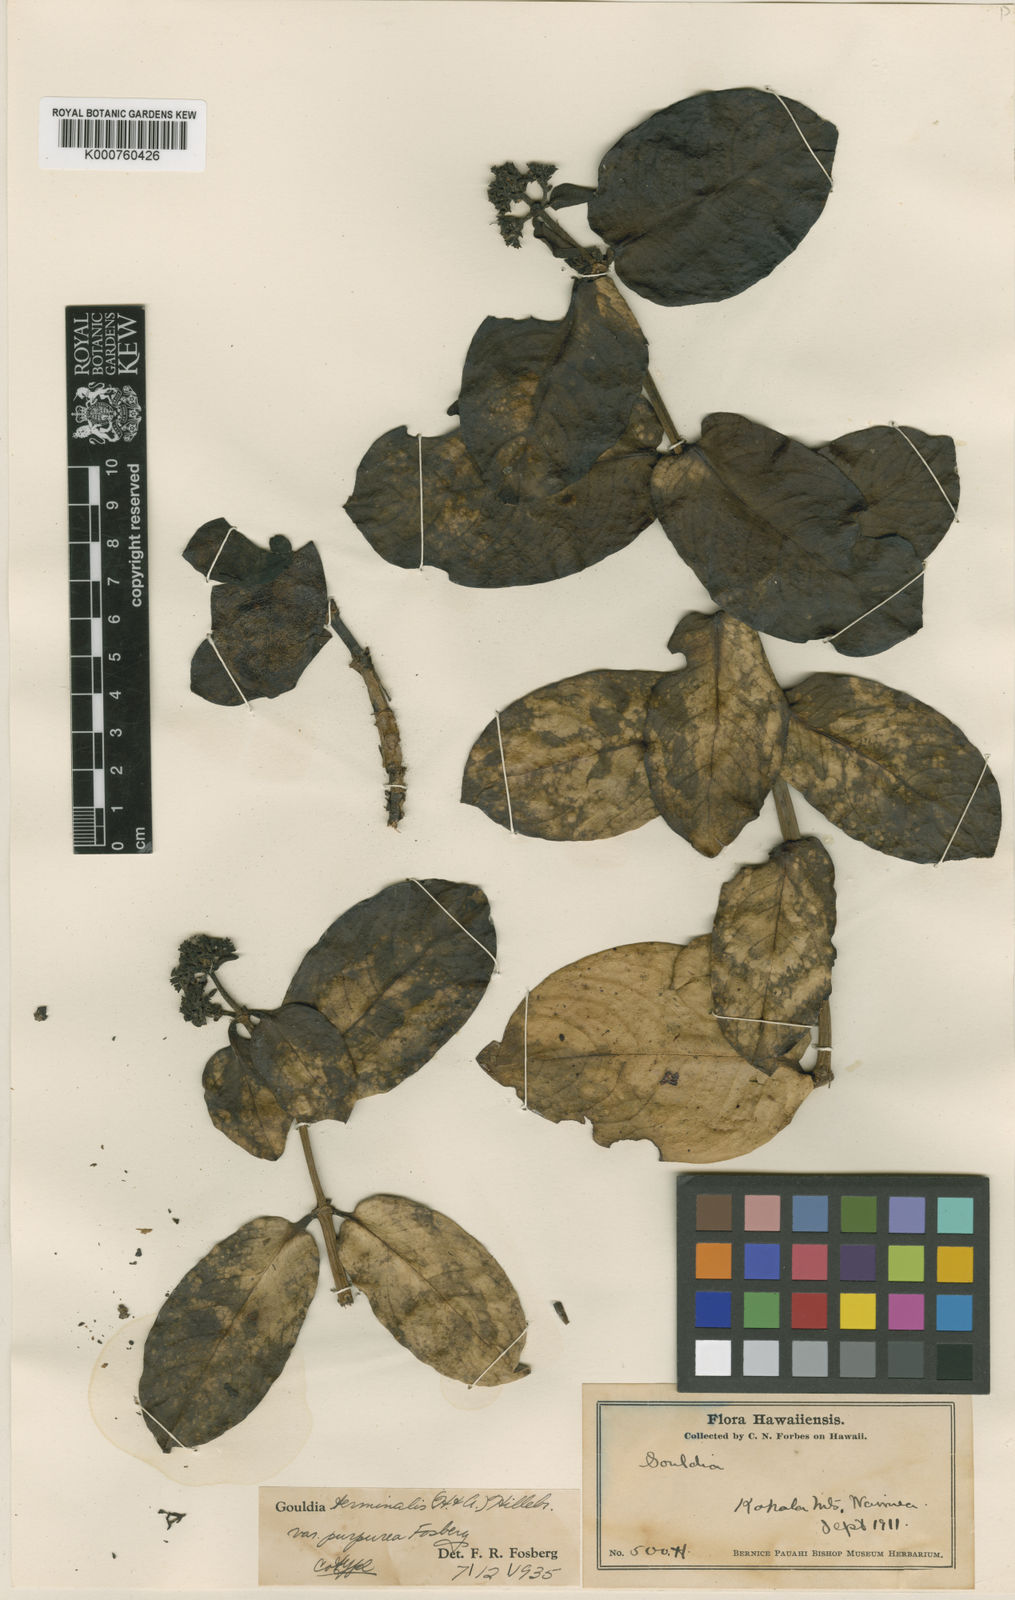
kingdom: Plantae
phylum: Tracheophyta
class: Magnoliopsida
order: Gentianales
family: Rubiaceae
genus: Kadua
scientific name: Kadua affinis
